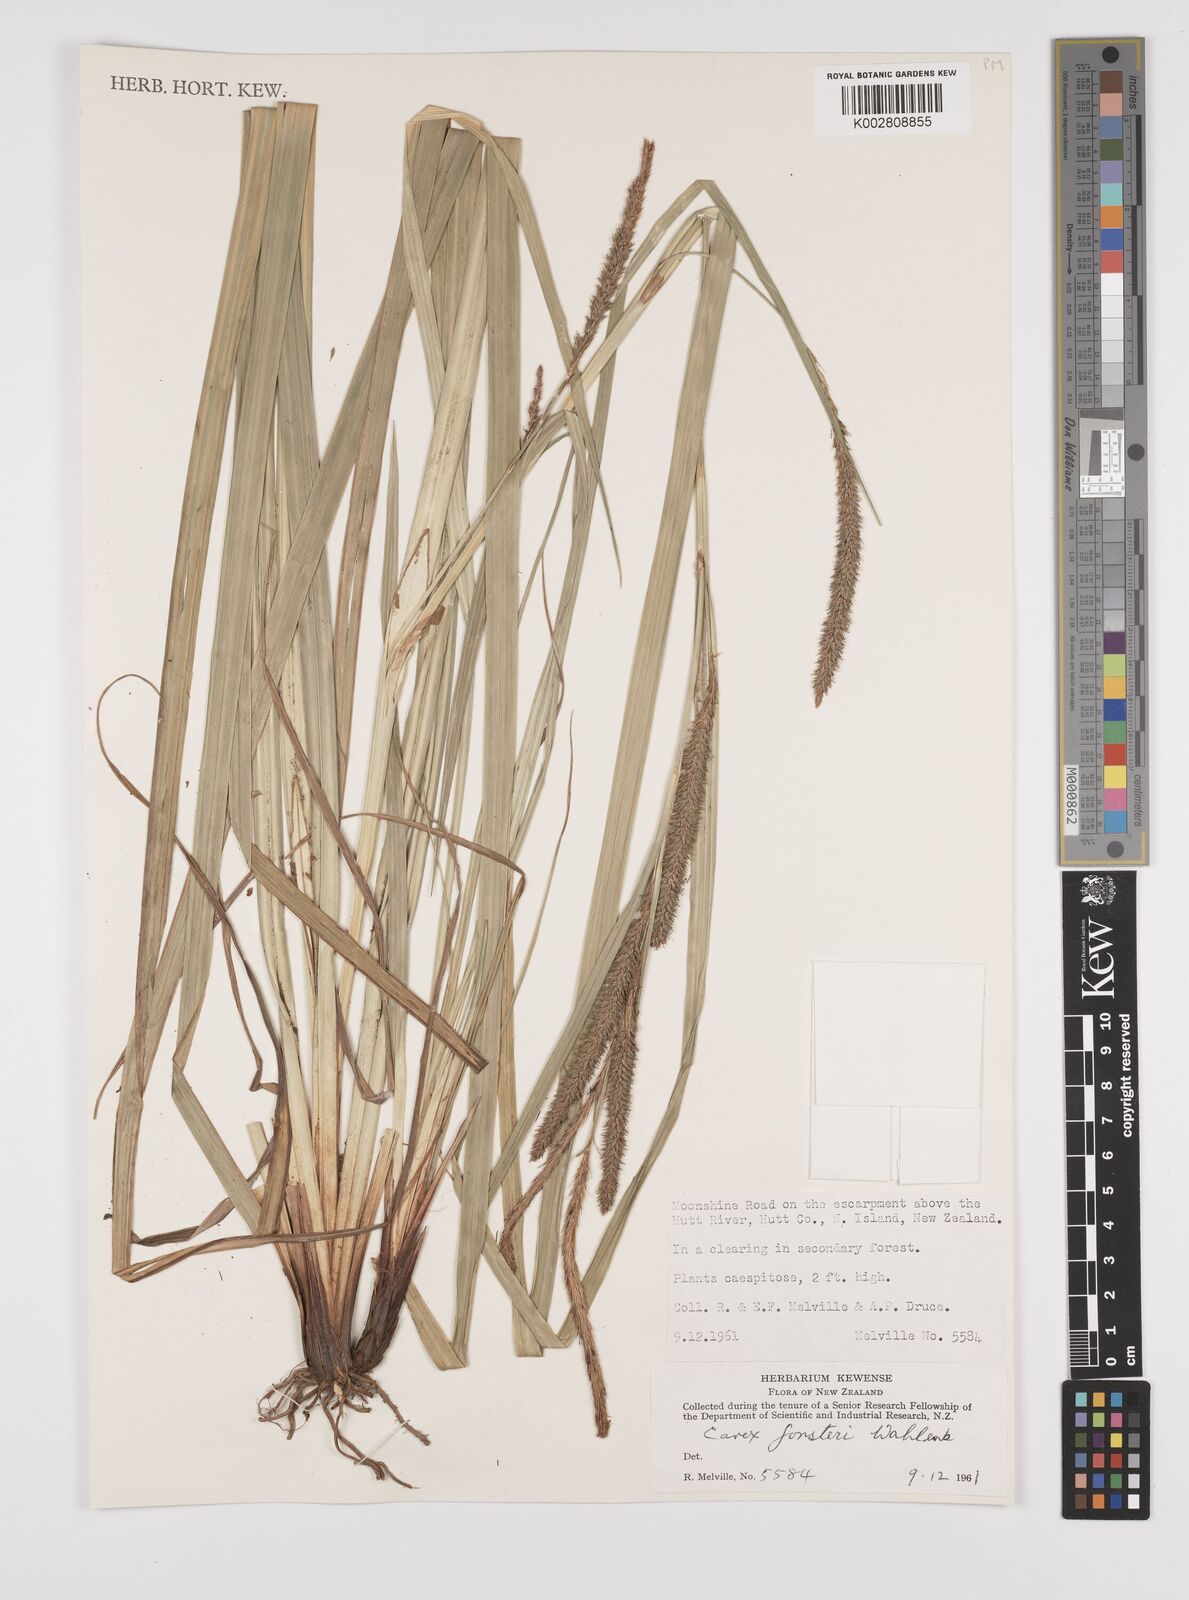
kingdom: Plantae
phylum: Tracheophyta
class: Liliopsida
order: Poales
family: Cyperaceae
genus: Carex
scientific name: Carex forsteri
